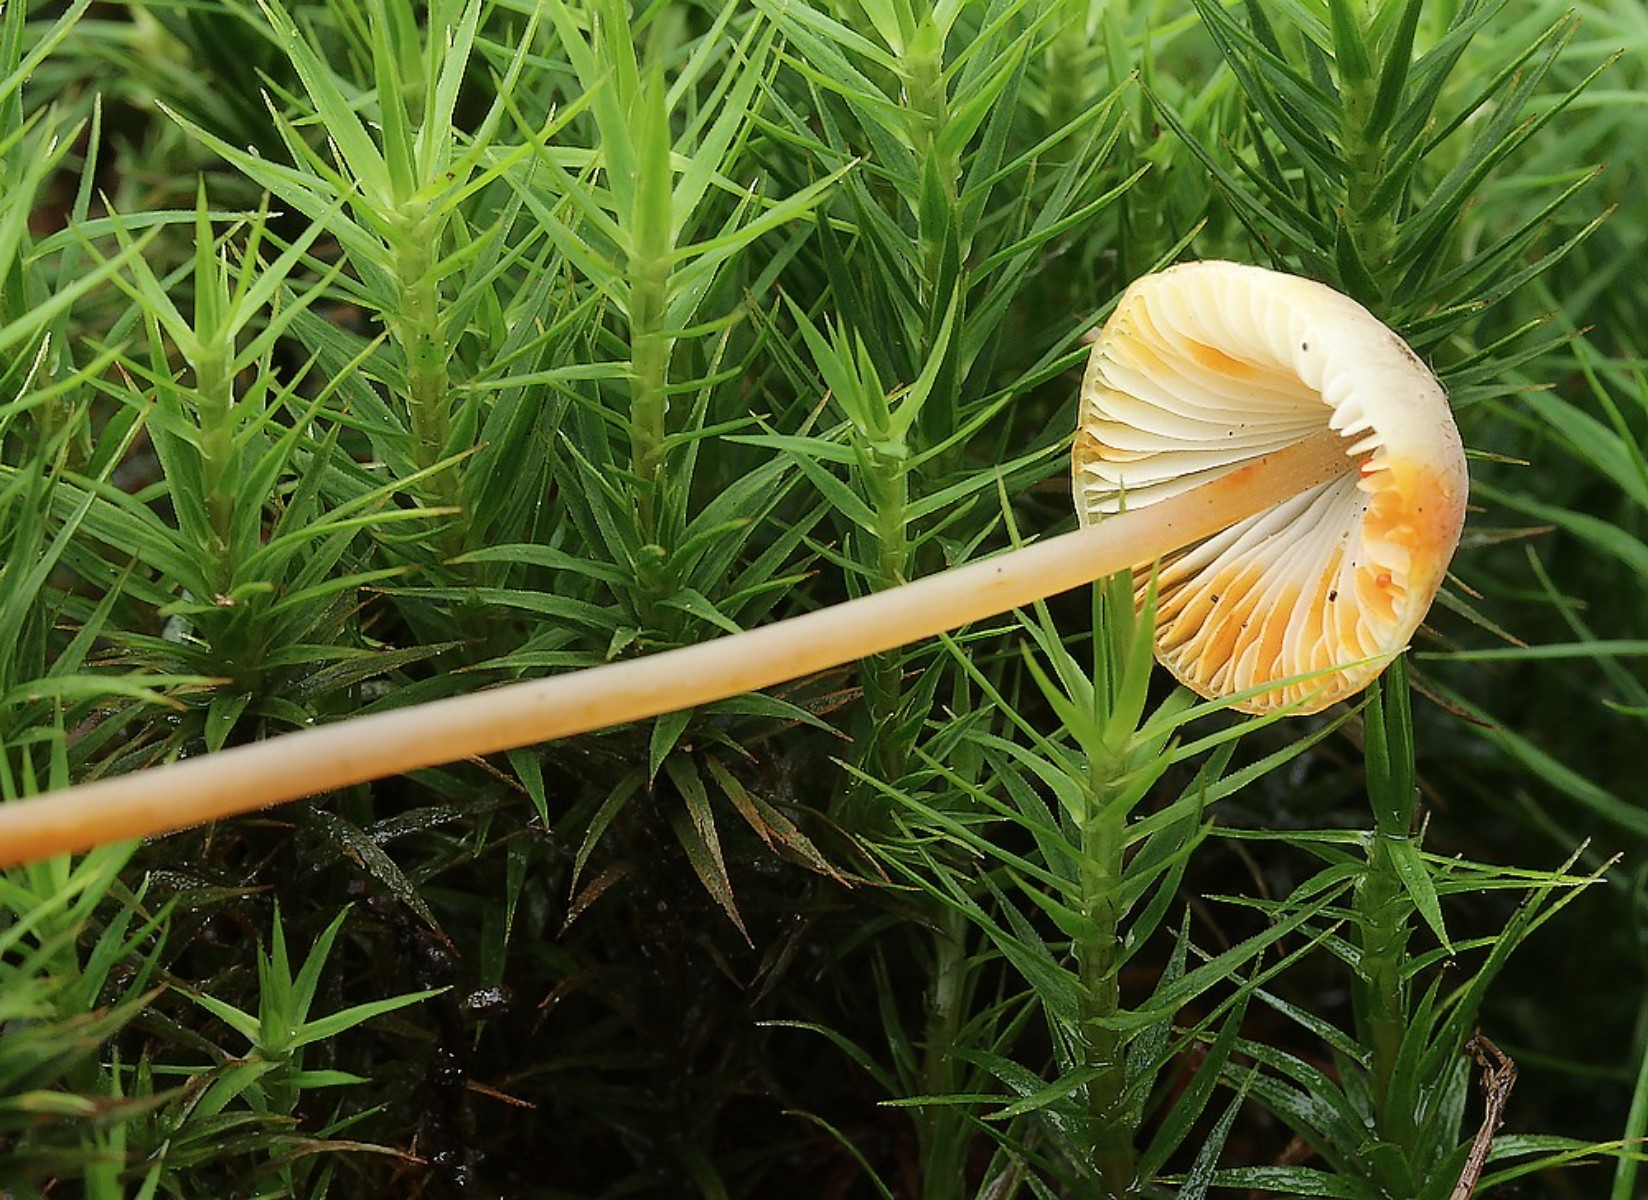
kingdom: Fungi
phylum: Basidiomycota
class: Agaricomycetes
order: Agaricales
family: Mycenaceae
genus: Mycena
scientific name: Mycena crocata
